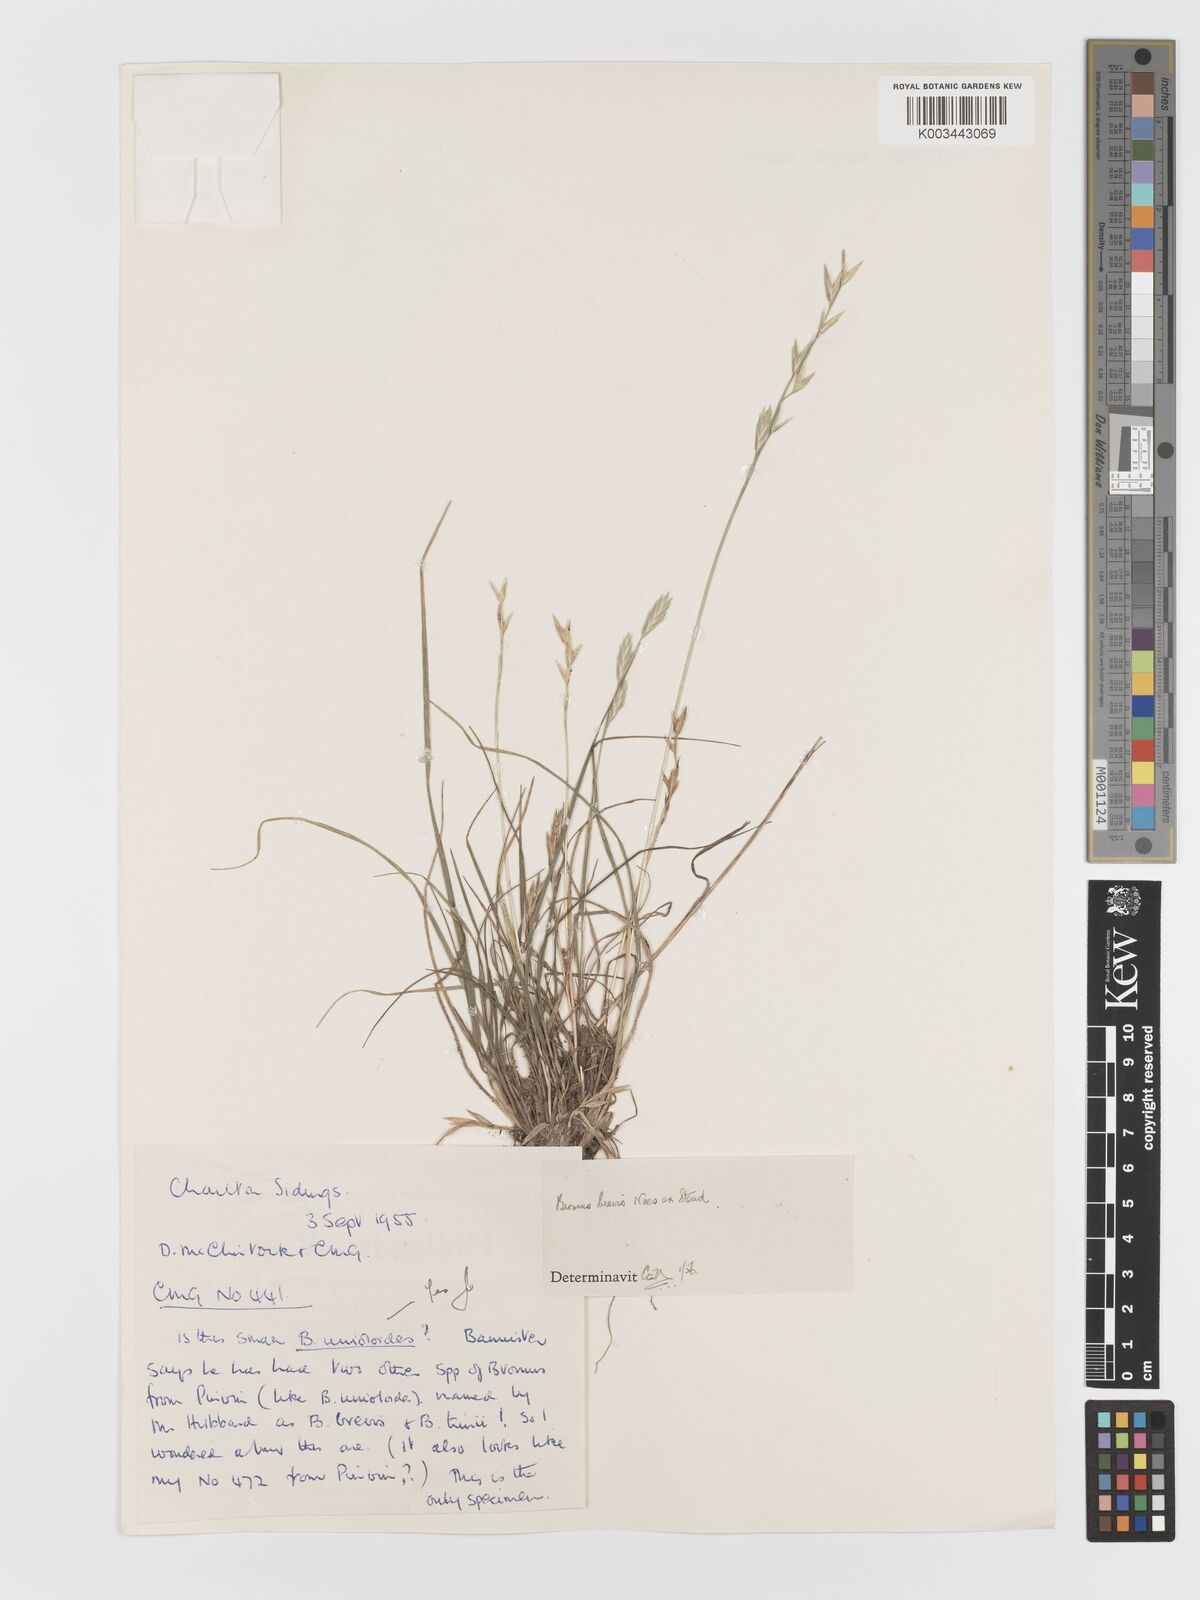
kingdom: Plantae
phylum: Tracheophyta
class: Liliopsida
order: Poales
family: Poaceae
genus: Bromus
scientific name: Bromus catharticus
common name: Rescuegrass
